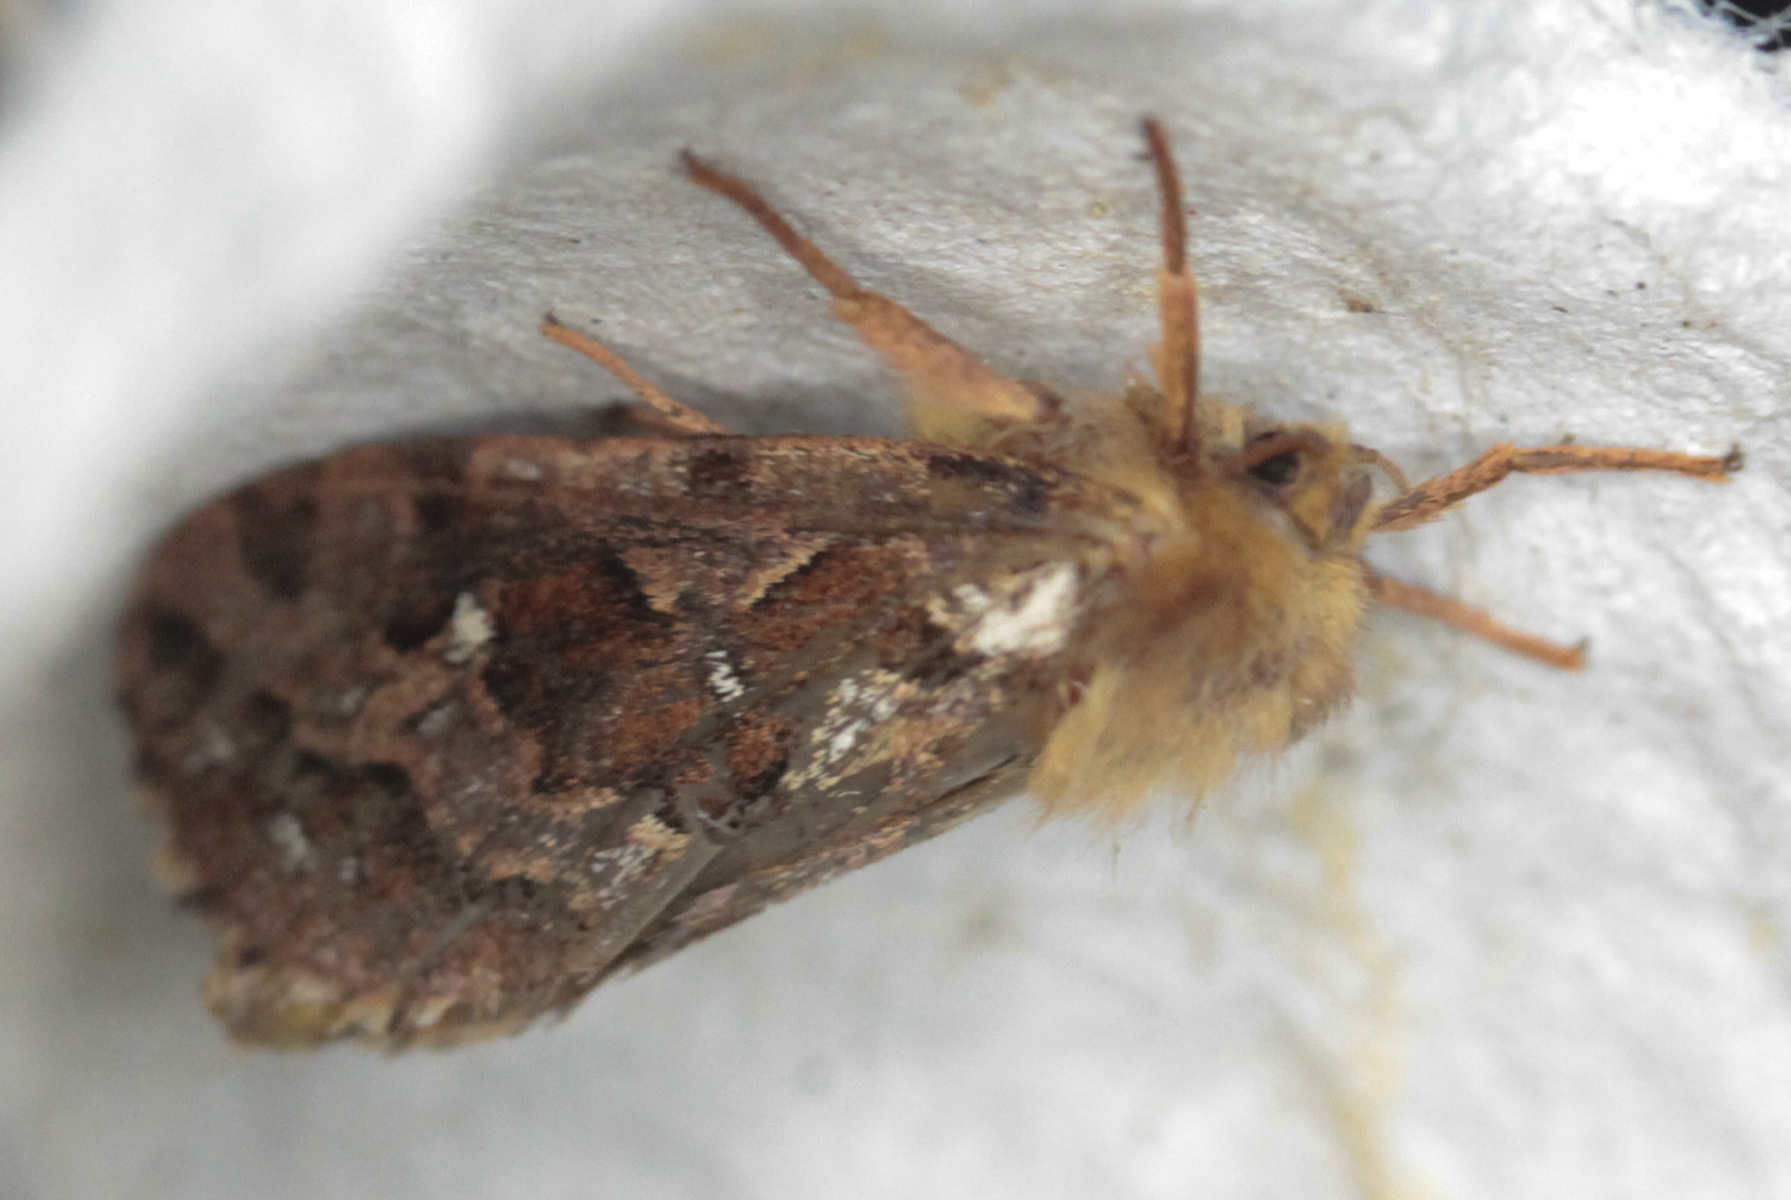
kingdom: Animalia
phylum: Arthropoda
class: Insecta
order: Lepidoptera
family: Hepialidae
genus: Korscheltellus
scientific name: Korscheltellus fusconebulosus
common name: Map-winged swift
